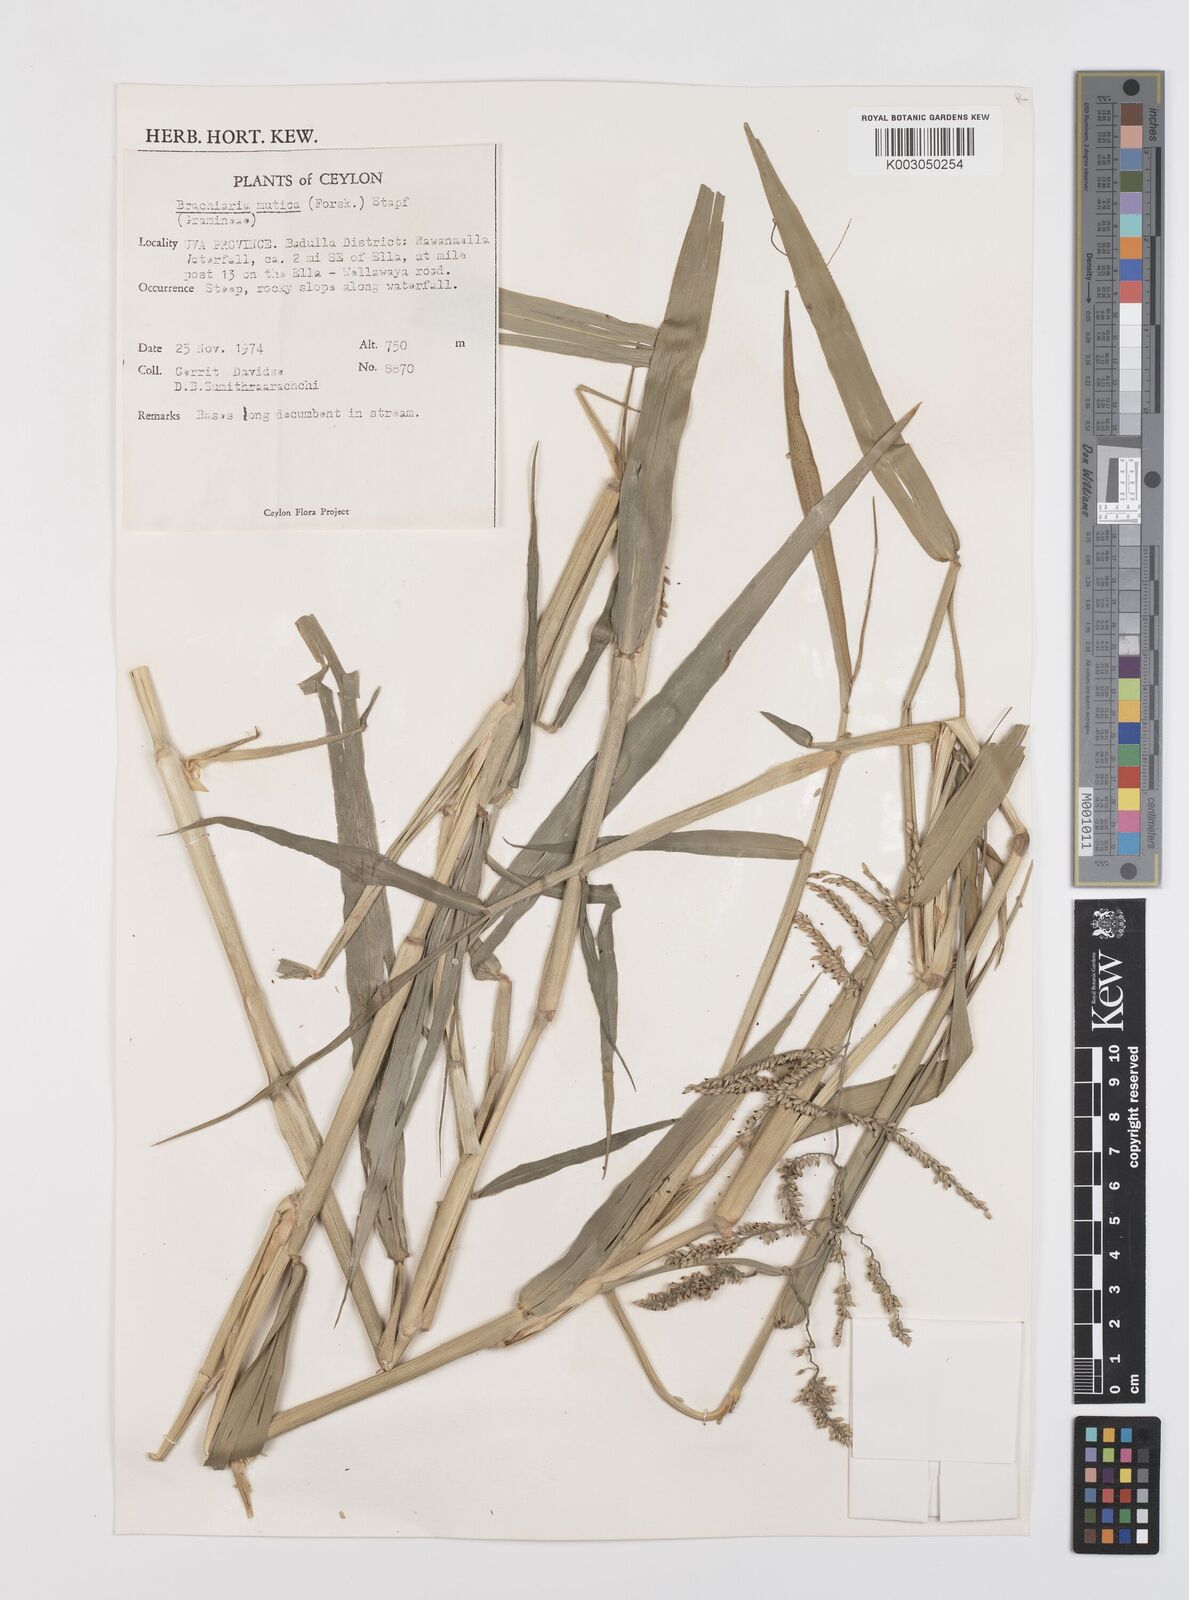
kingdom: Plantae
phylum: Tracheophyta
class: Liliopsida
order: Poales
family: Poaceae
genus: Urochloa
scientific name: Urochloa mutica
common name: Para grass
